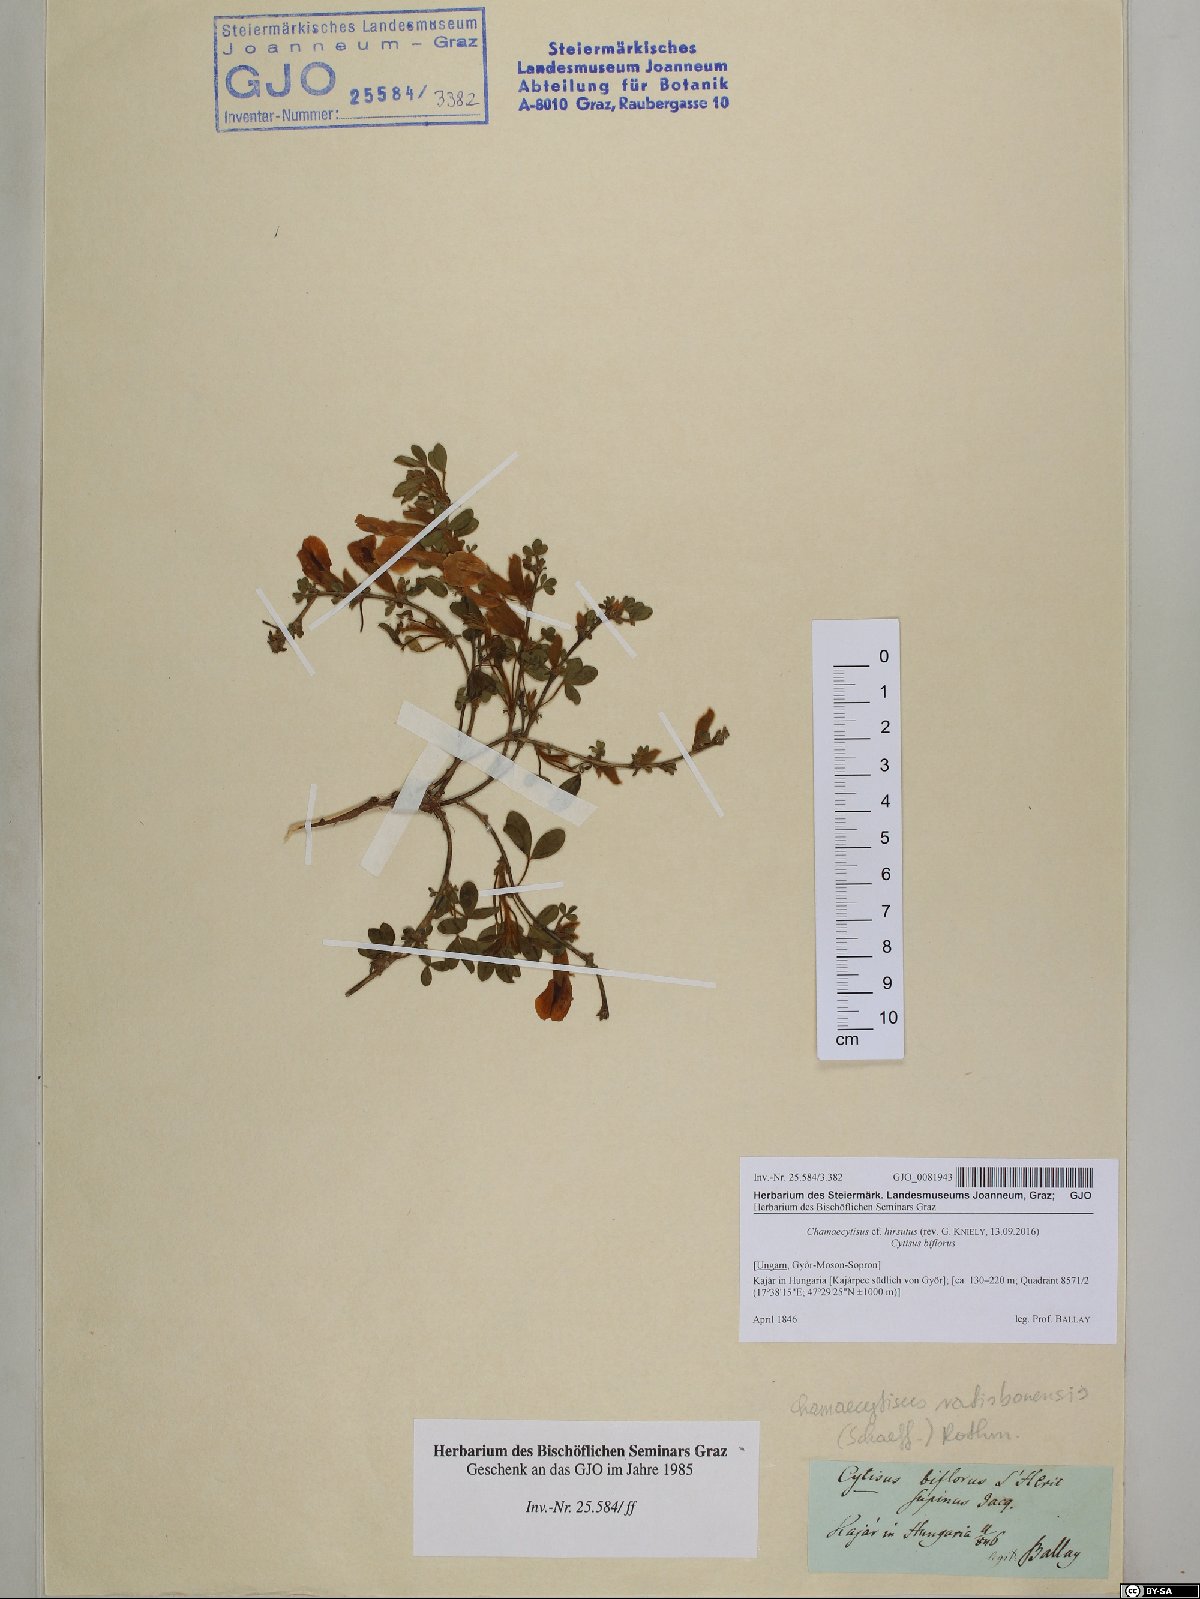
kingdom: Plantae
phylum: Tracheophyta
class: Magnoliopsida
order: Fabales
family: Fabaceae
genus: Chamaecytisus
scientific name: Chamaecytisus hirsutus
